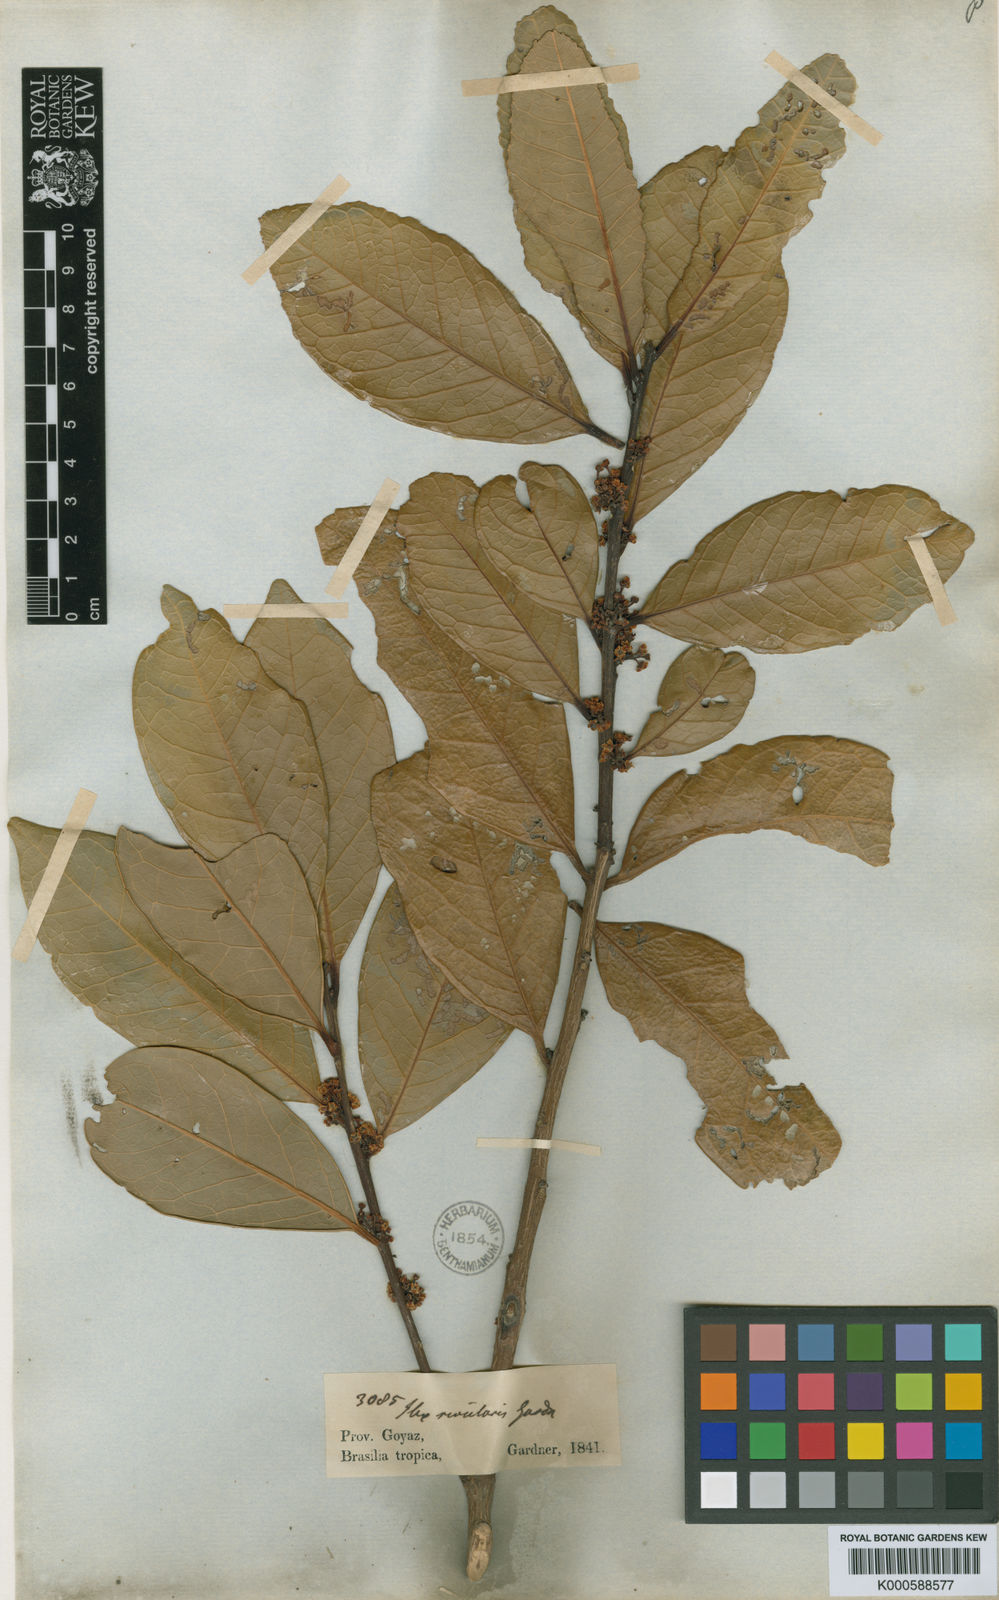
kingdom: Plantae
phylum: Tracheophyta
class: Magnoliopsida
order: Aquifoliales
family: Aquifoliaceae
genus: Ilex
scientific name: Ilex affinis
